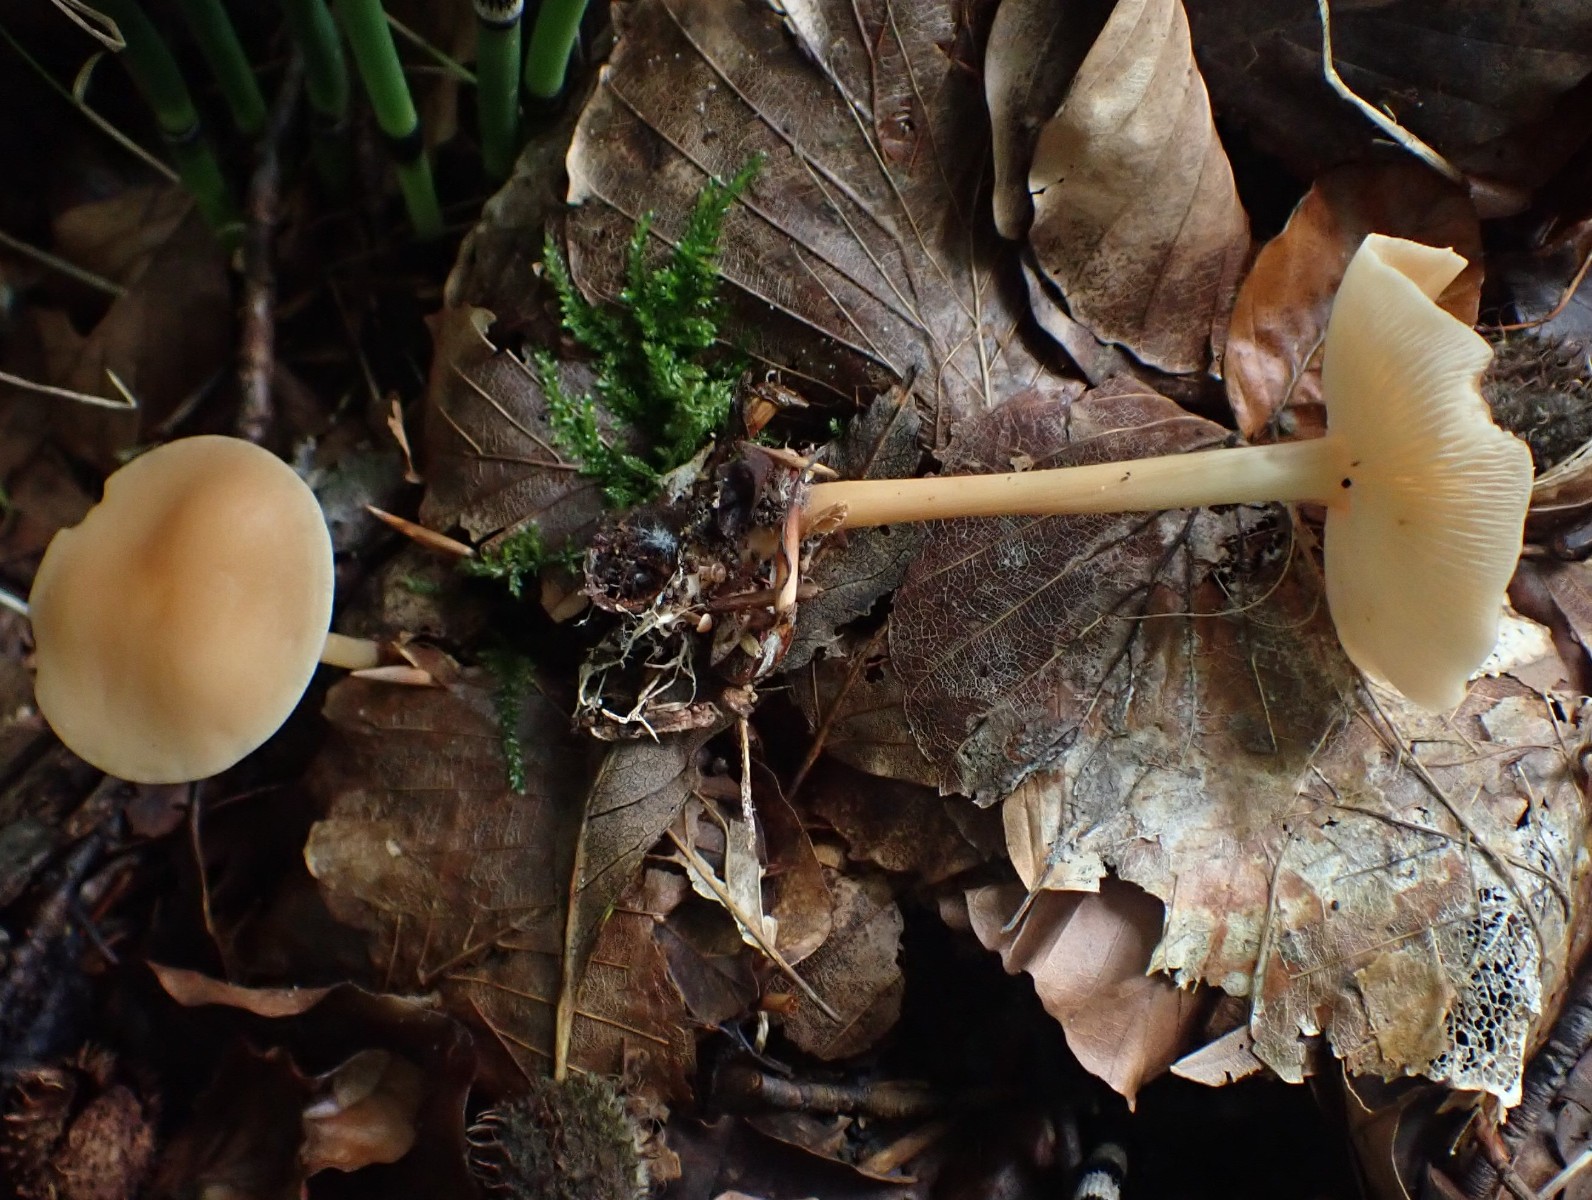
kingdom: Fungi
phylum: Basidiomycota
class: Agaricomycetes
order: Agaricales
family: Omphalotaceae
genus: Gymnopus
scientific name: Gymnopus dryophilus
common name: løv-fladhat
